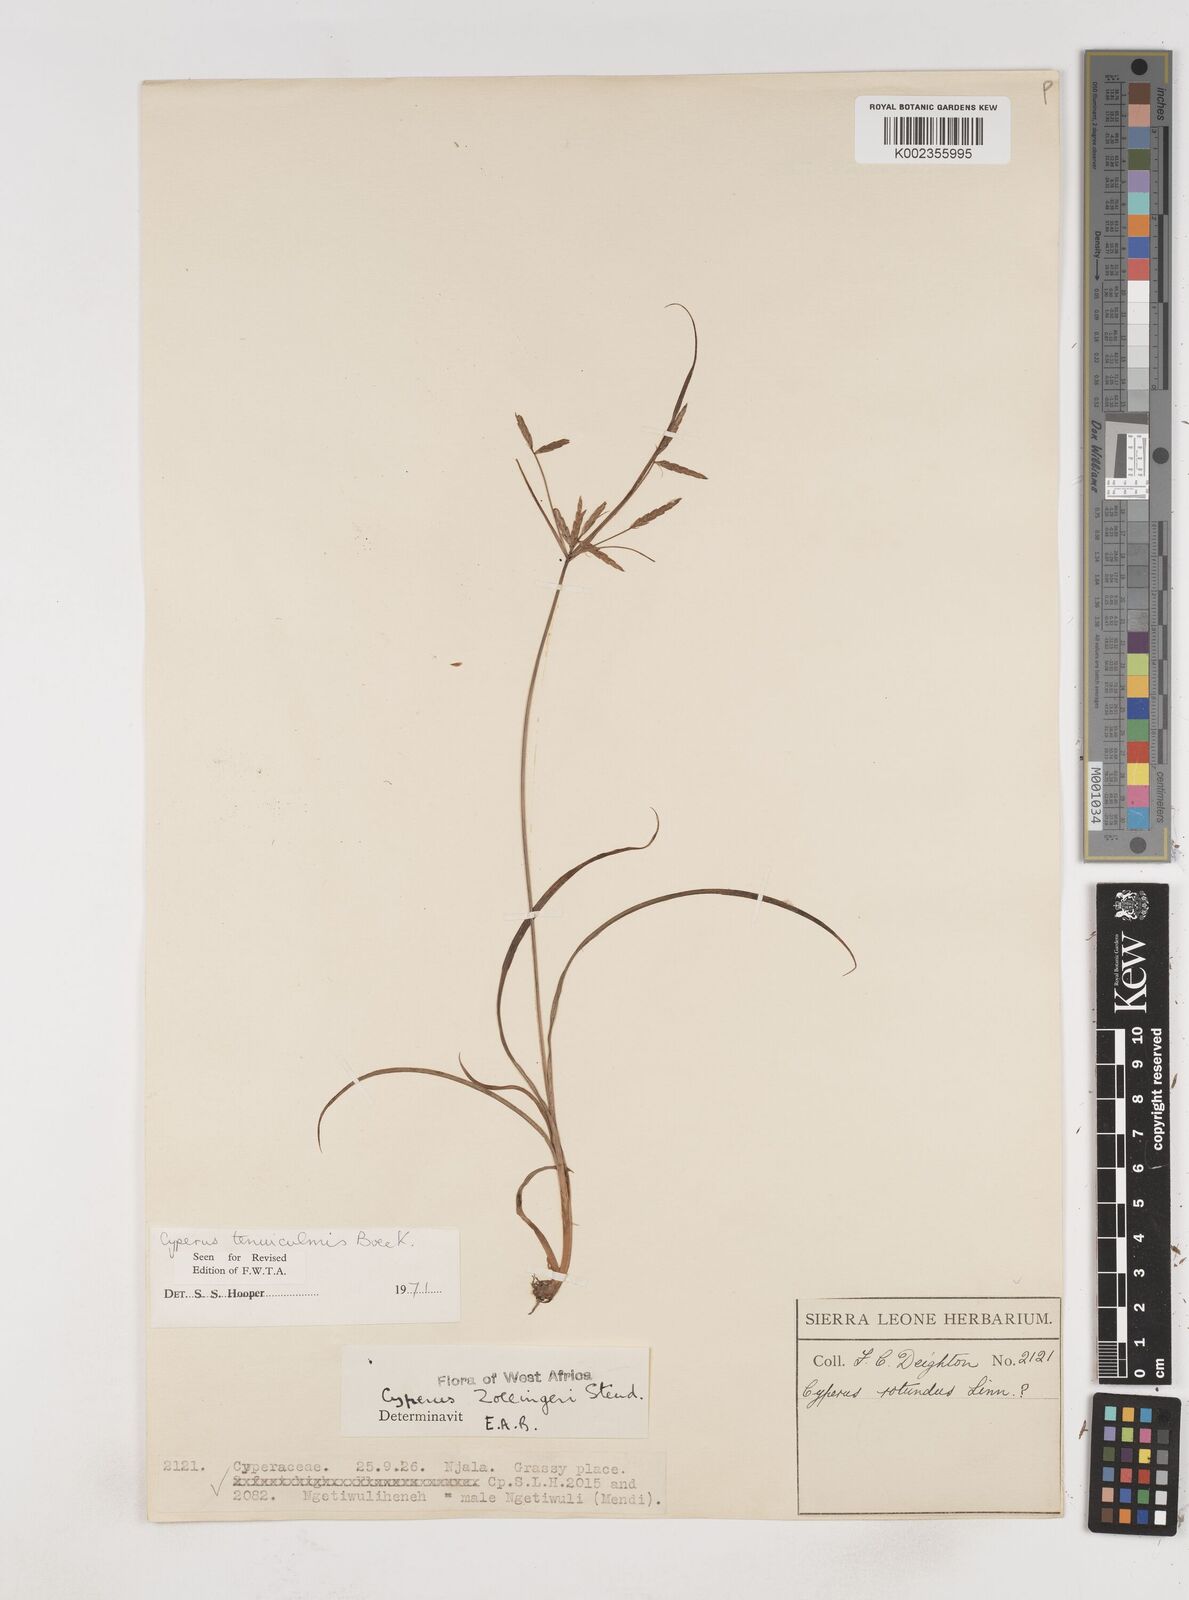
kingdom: Plantae
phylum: Tracheophyta
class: Liliopsida
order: Poales
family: Cyperaceae
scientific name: Cyperaceae
